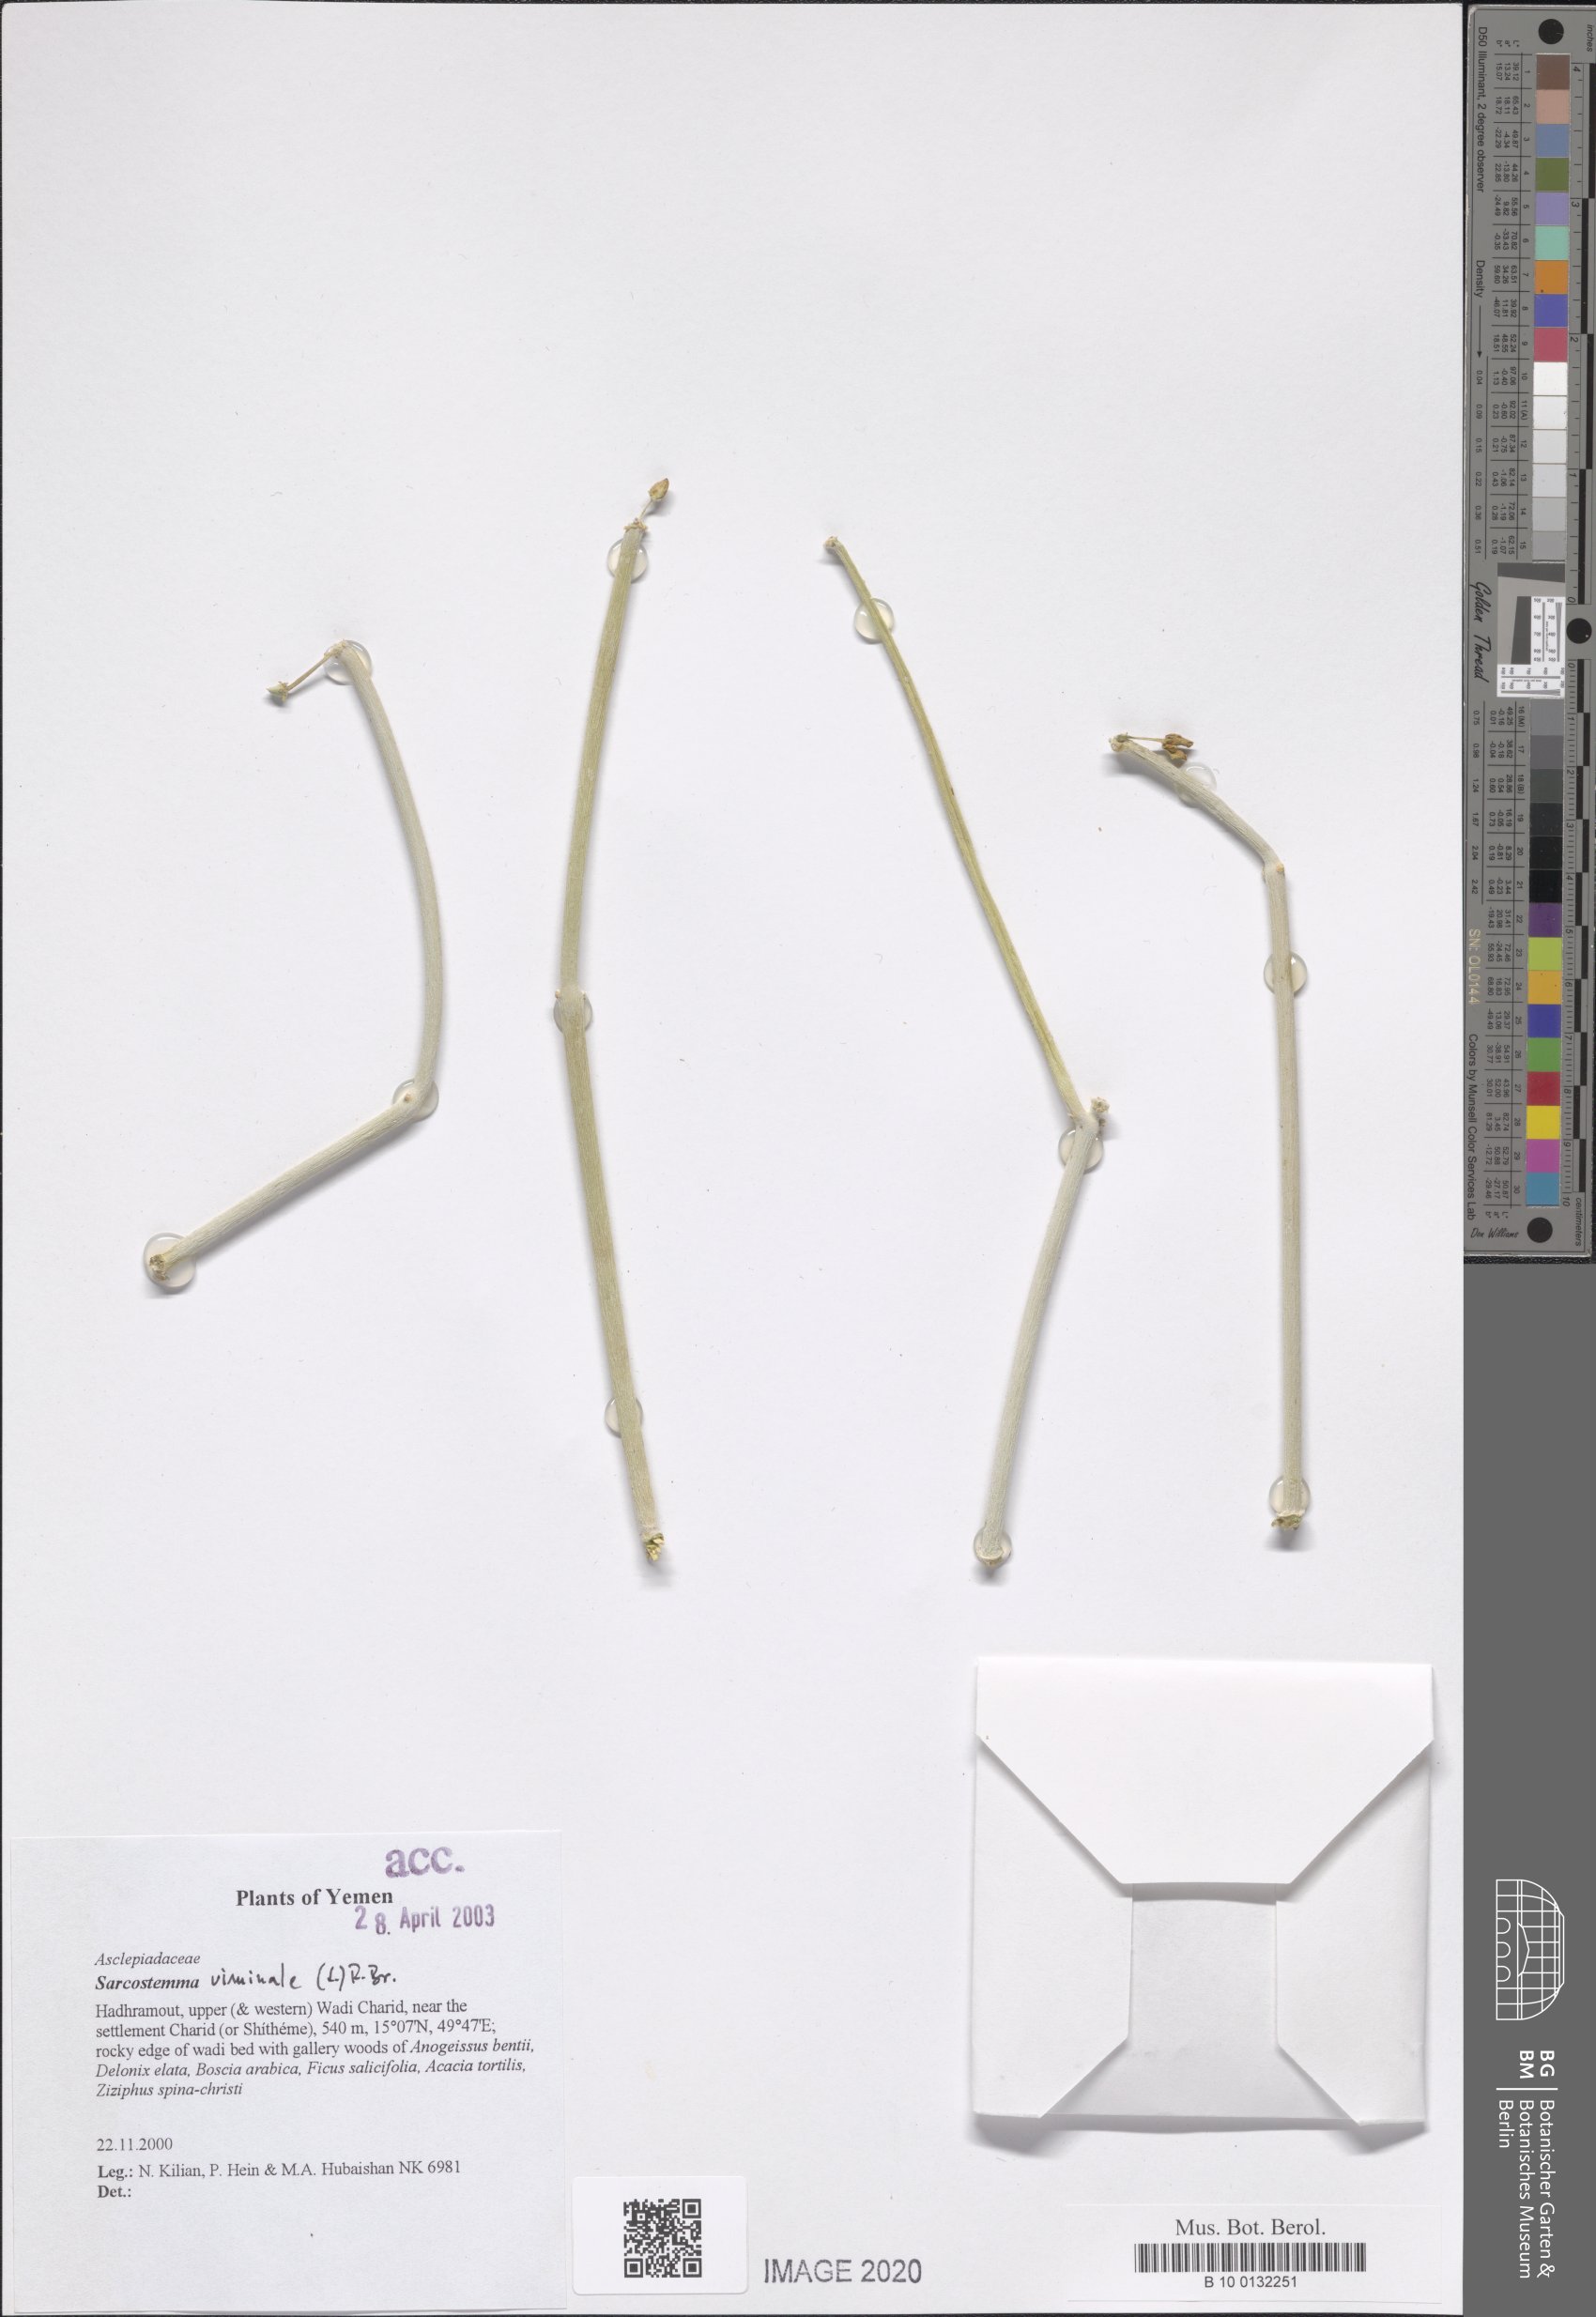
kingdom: Plantae
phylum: Tracheophyta
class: Magnoliopsida
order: Gentianales
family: Apocynaceae
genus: Cynanchum
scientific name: Cynanchum viminale
